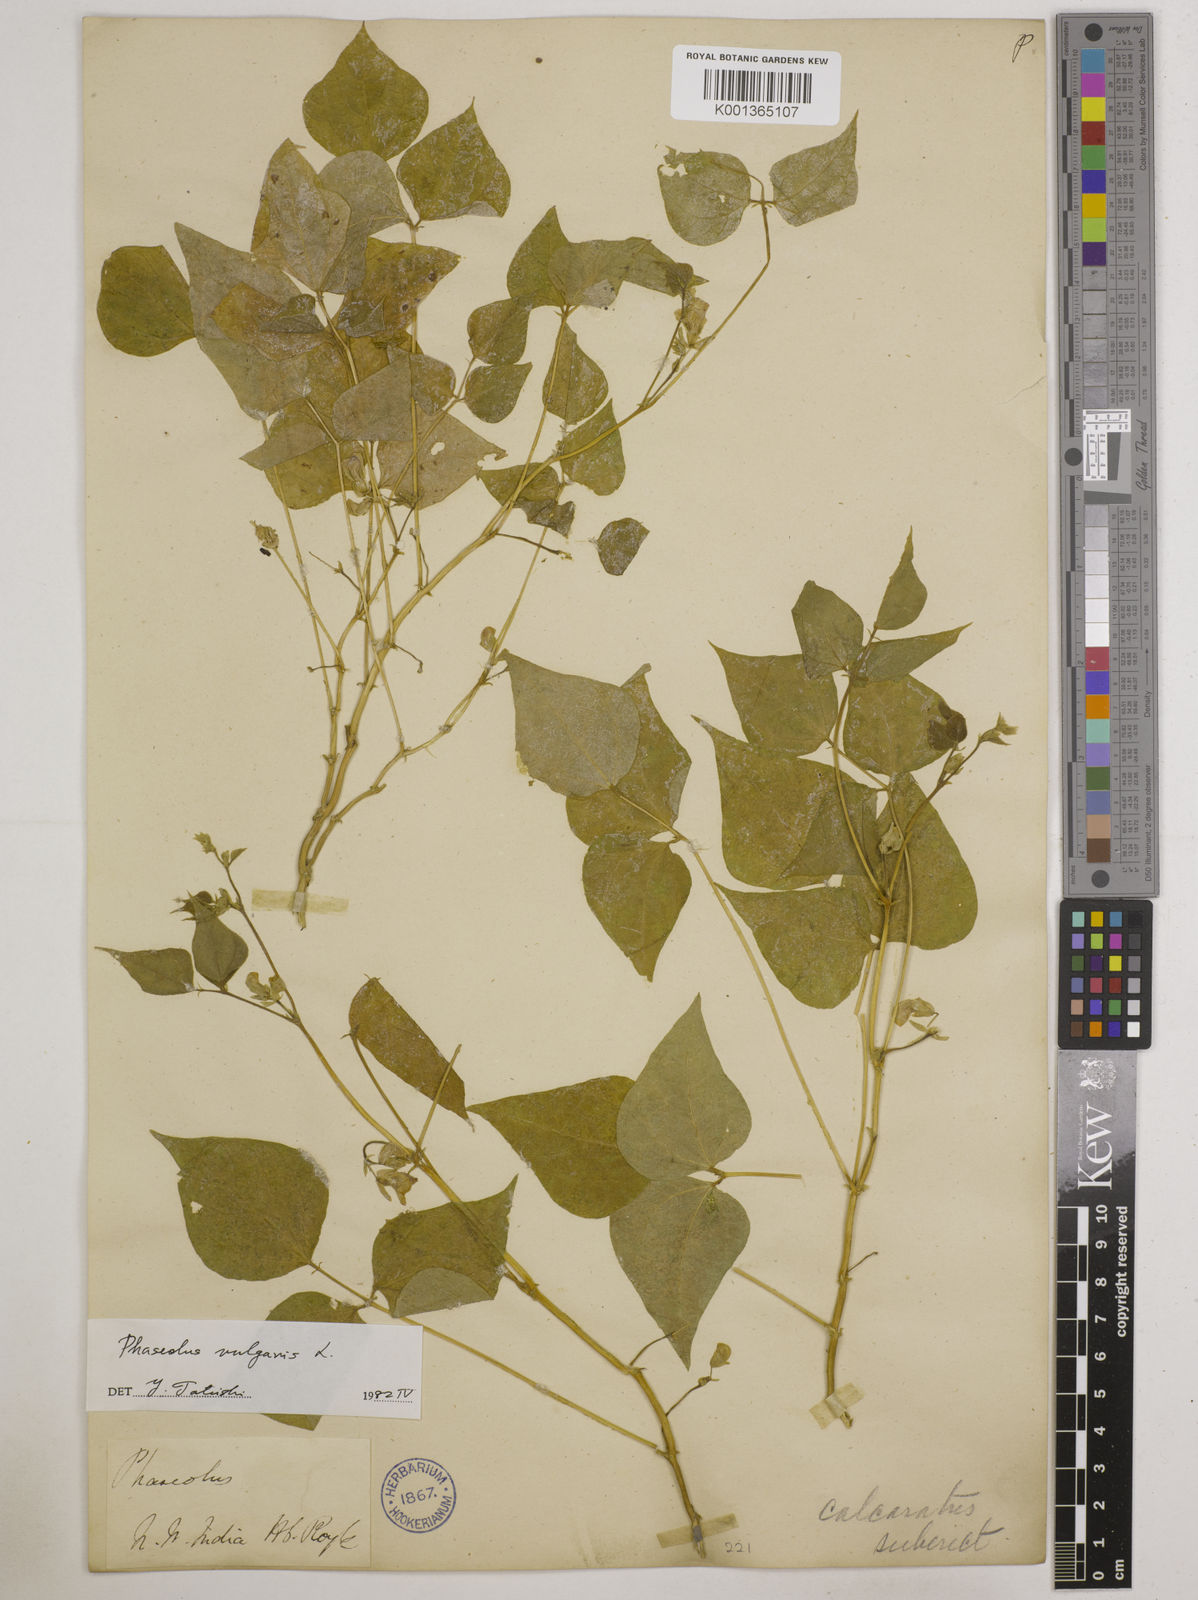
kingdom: Plantae
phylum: Tracheophyta
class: Magnoliopsida
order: Fabales
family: Fabaceae
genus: Phaseolus
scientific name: Phaseolus vulgaris
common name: Bean
